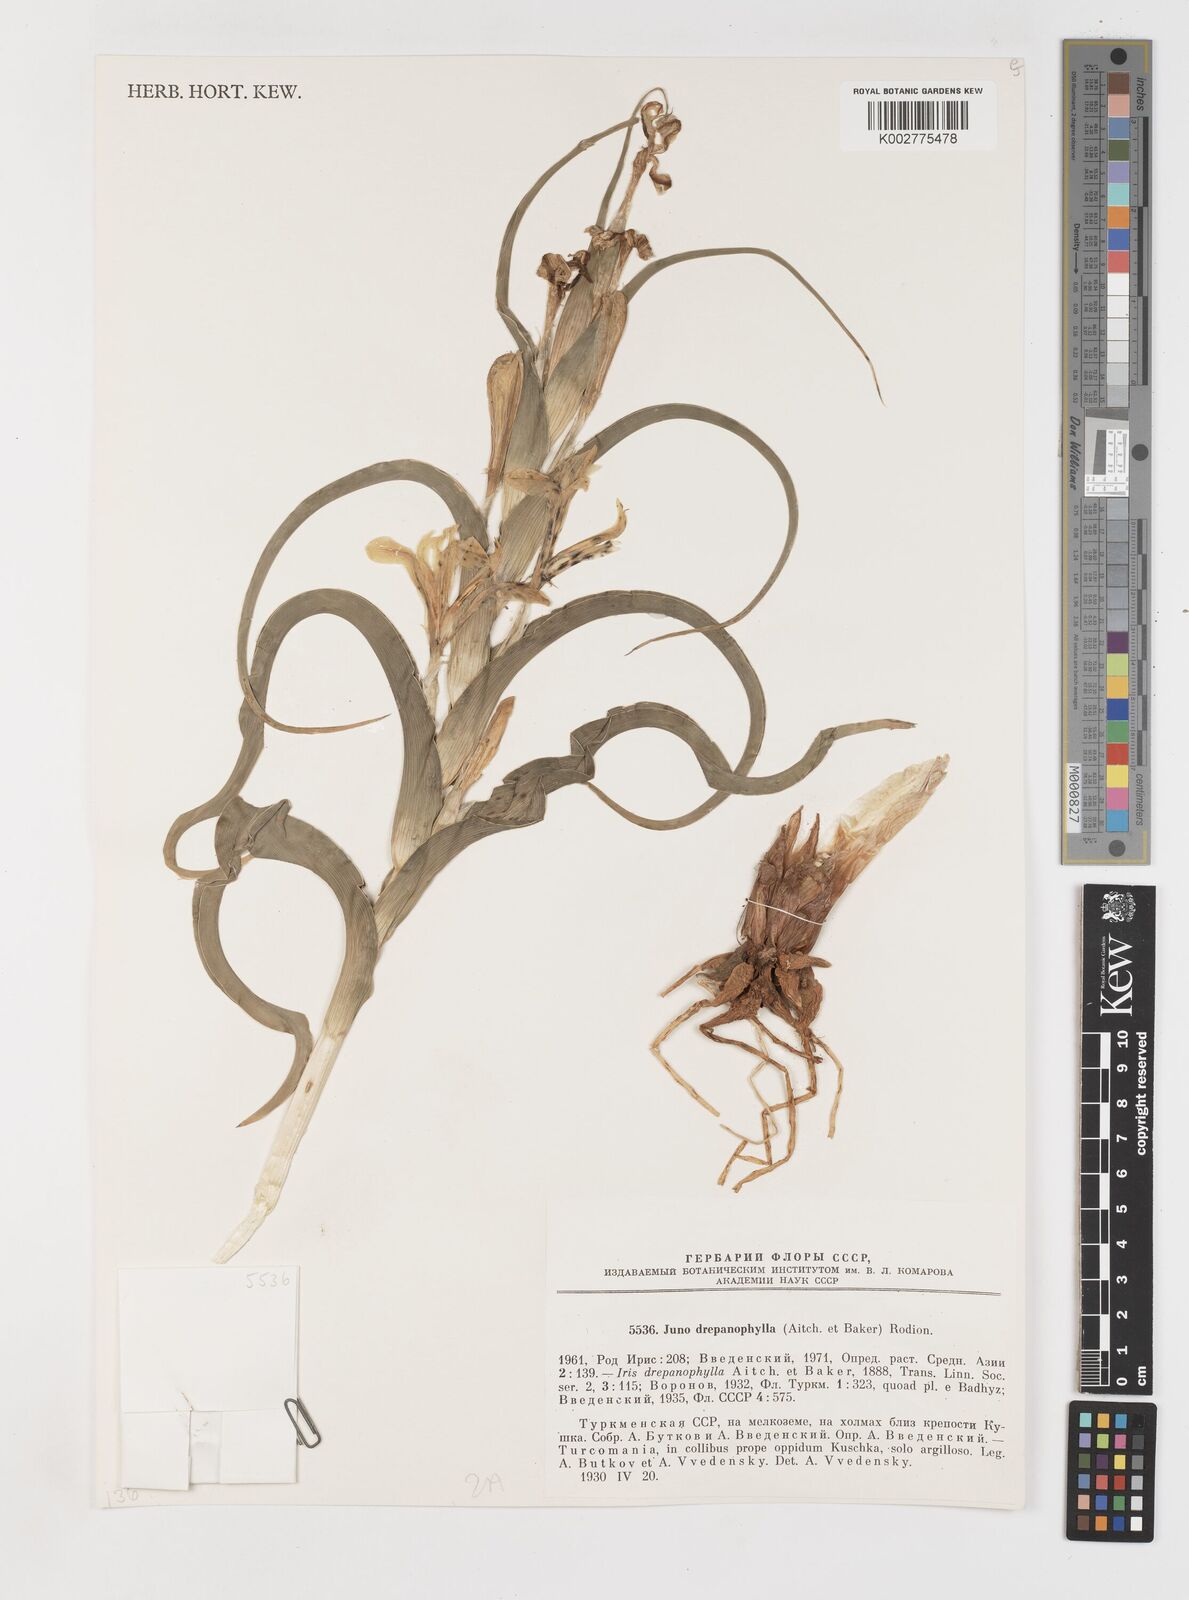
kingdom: Plantae
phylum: Tracheophyta
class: Liliopsida
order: Asparagales
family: Iridaceae
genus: Iris
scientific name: Iris drepanophylla
